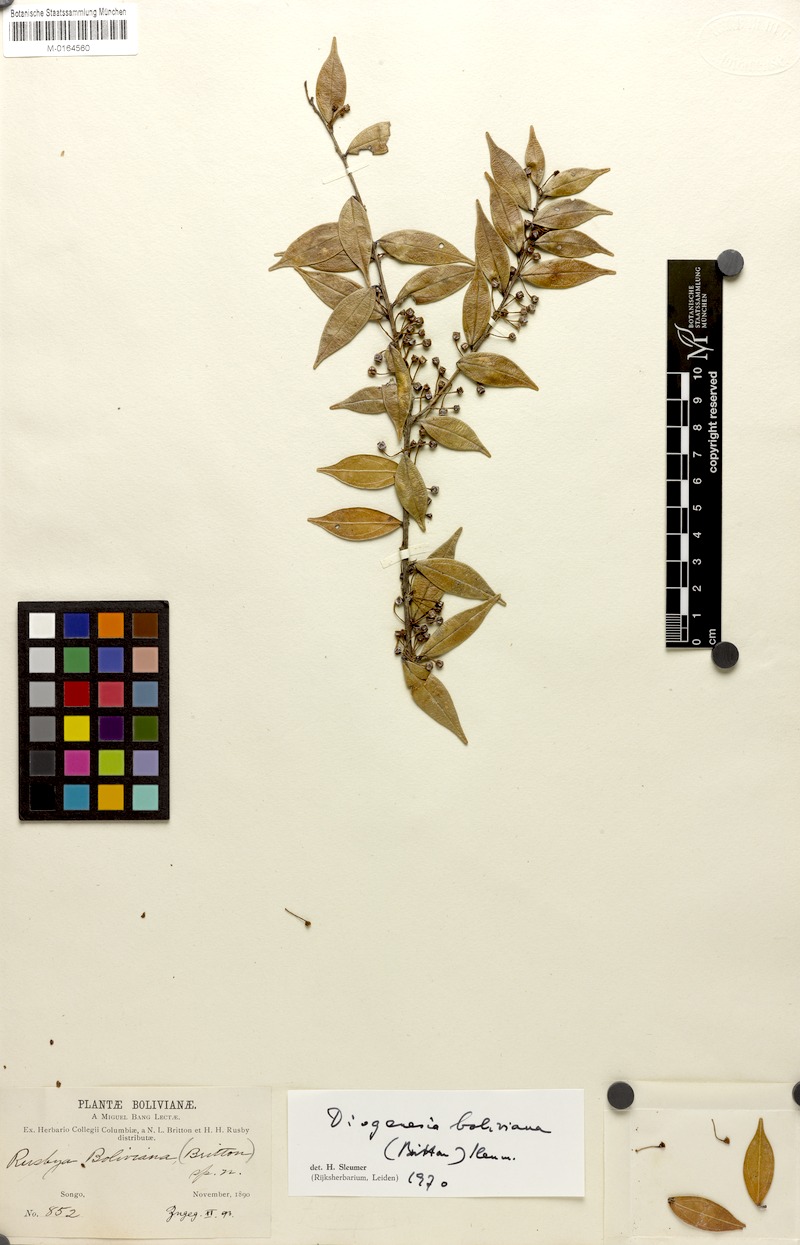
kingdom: Plantae
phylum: Tracheophyta
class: Magnoliopsida
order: Ericales
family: Ericaceae
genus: Diogenesia
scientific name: Diogenesia boliviana
